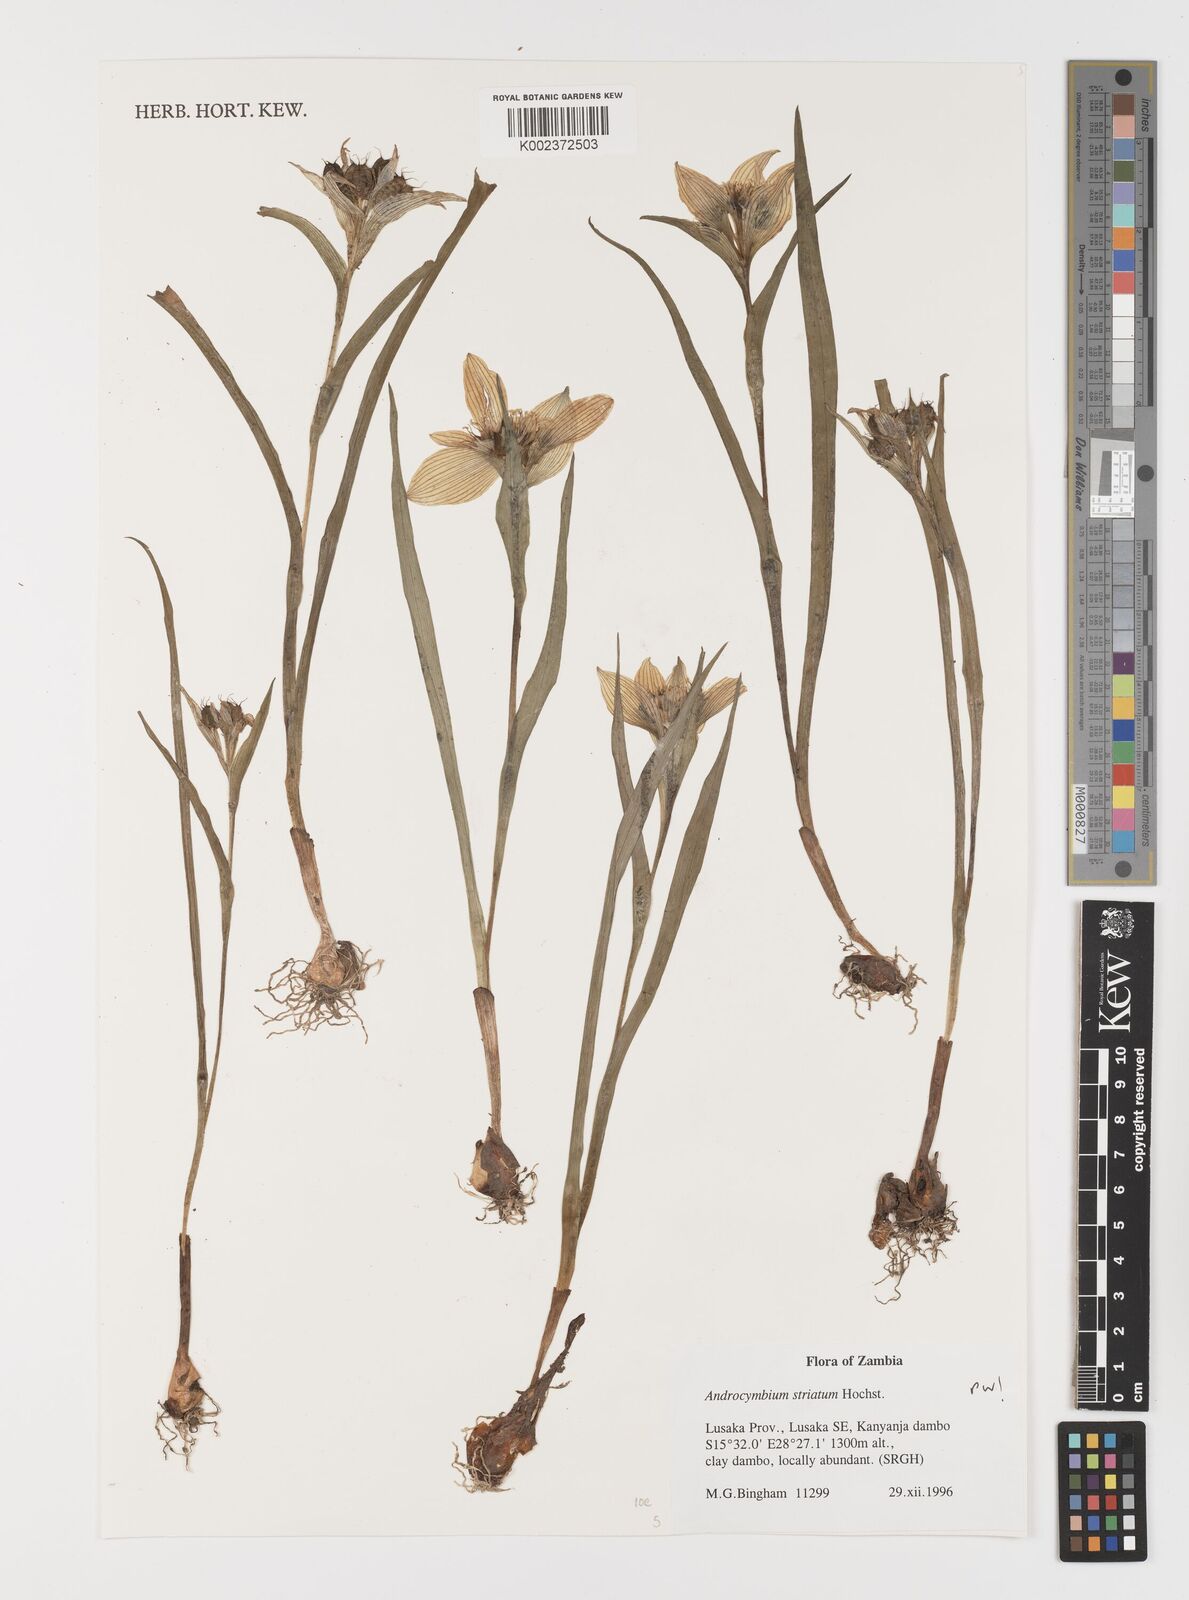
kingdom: Plantae
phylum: Tracheophyta
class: Liliopsida
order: Liliales
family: Colchicaceae
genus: Colchicum
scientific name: Colchicum striatum
